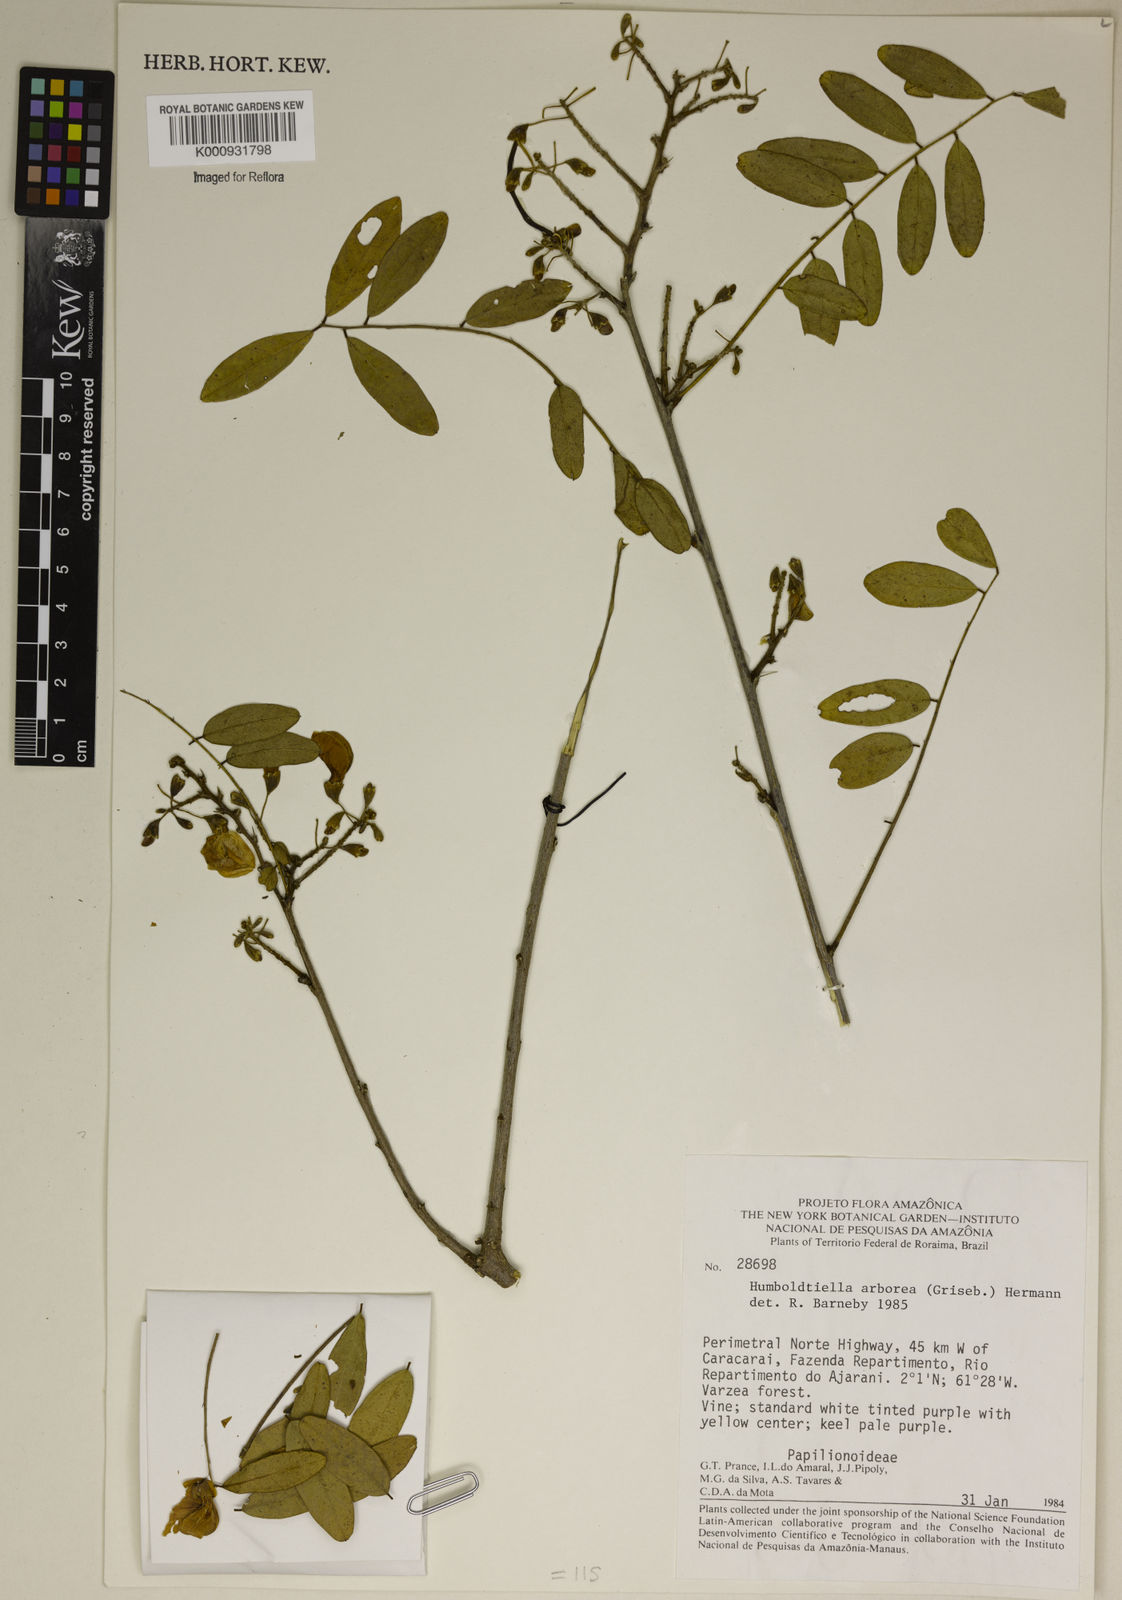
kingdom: Plantae
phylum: Tracheophyta
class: Magnoliopsida
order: Fabales
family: Fabaceae
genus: Coursetia
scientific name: Coursetia ferruginea
